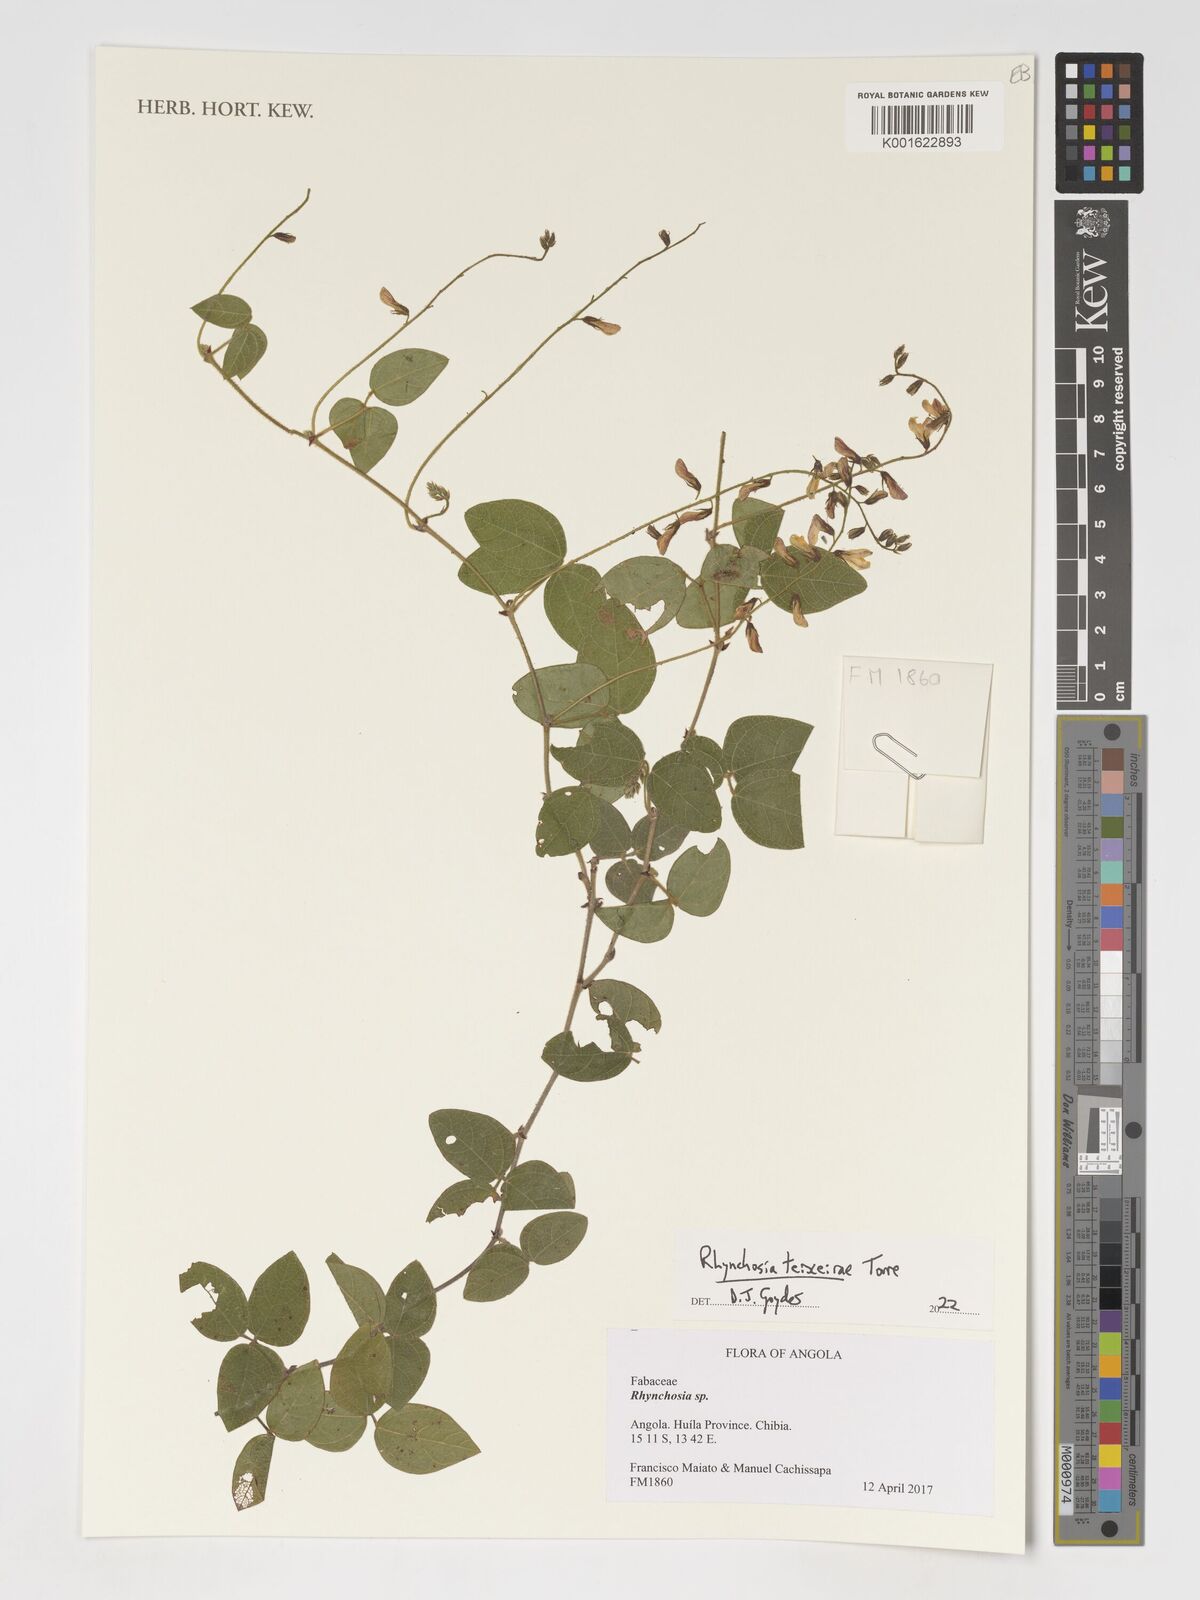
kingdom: Plantae
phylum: Tracheophyta
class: Magnoliopsida
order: Fabales
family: Fabaceae
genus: Rhynchosia
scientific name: Rhynchosia teixeirae
